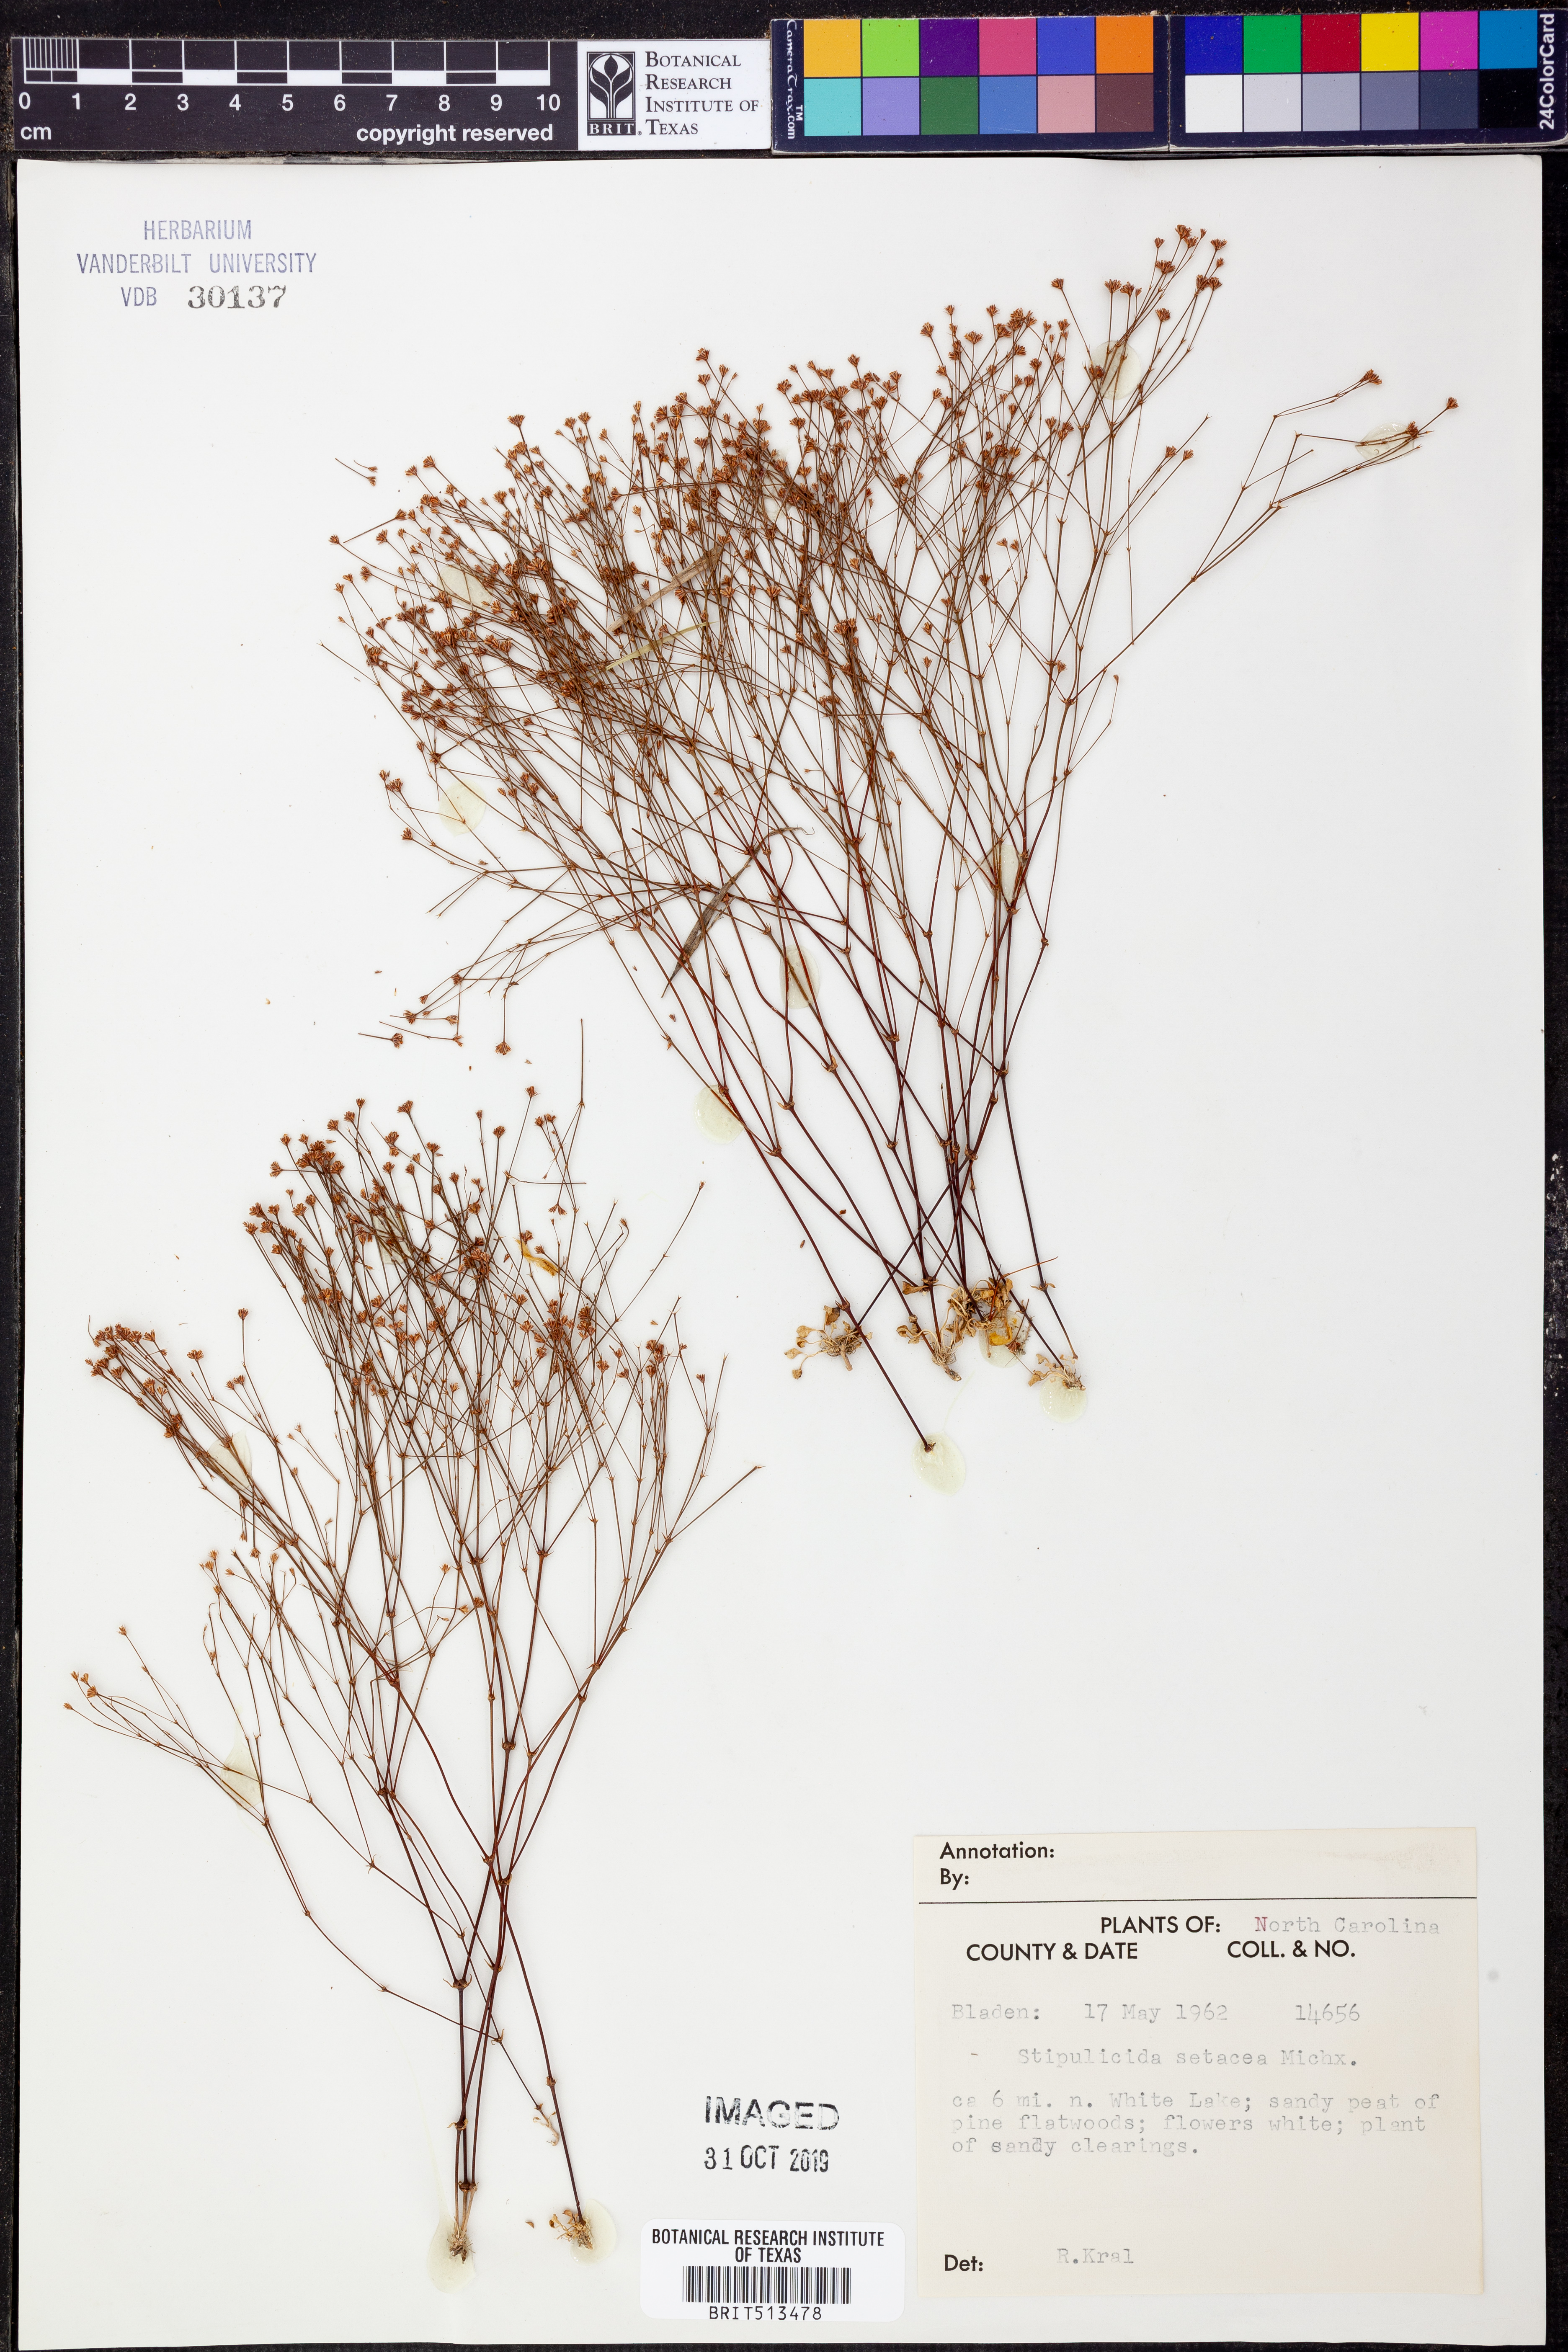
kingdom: Plantae
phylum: Tracheophyta
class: Magnoliopsida
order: Caryophyllales
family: Caryophyllaceae
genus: Stipulicida
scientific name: Stipulicida setacea
